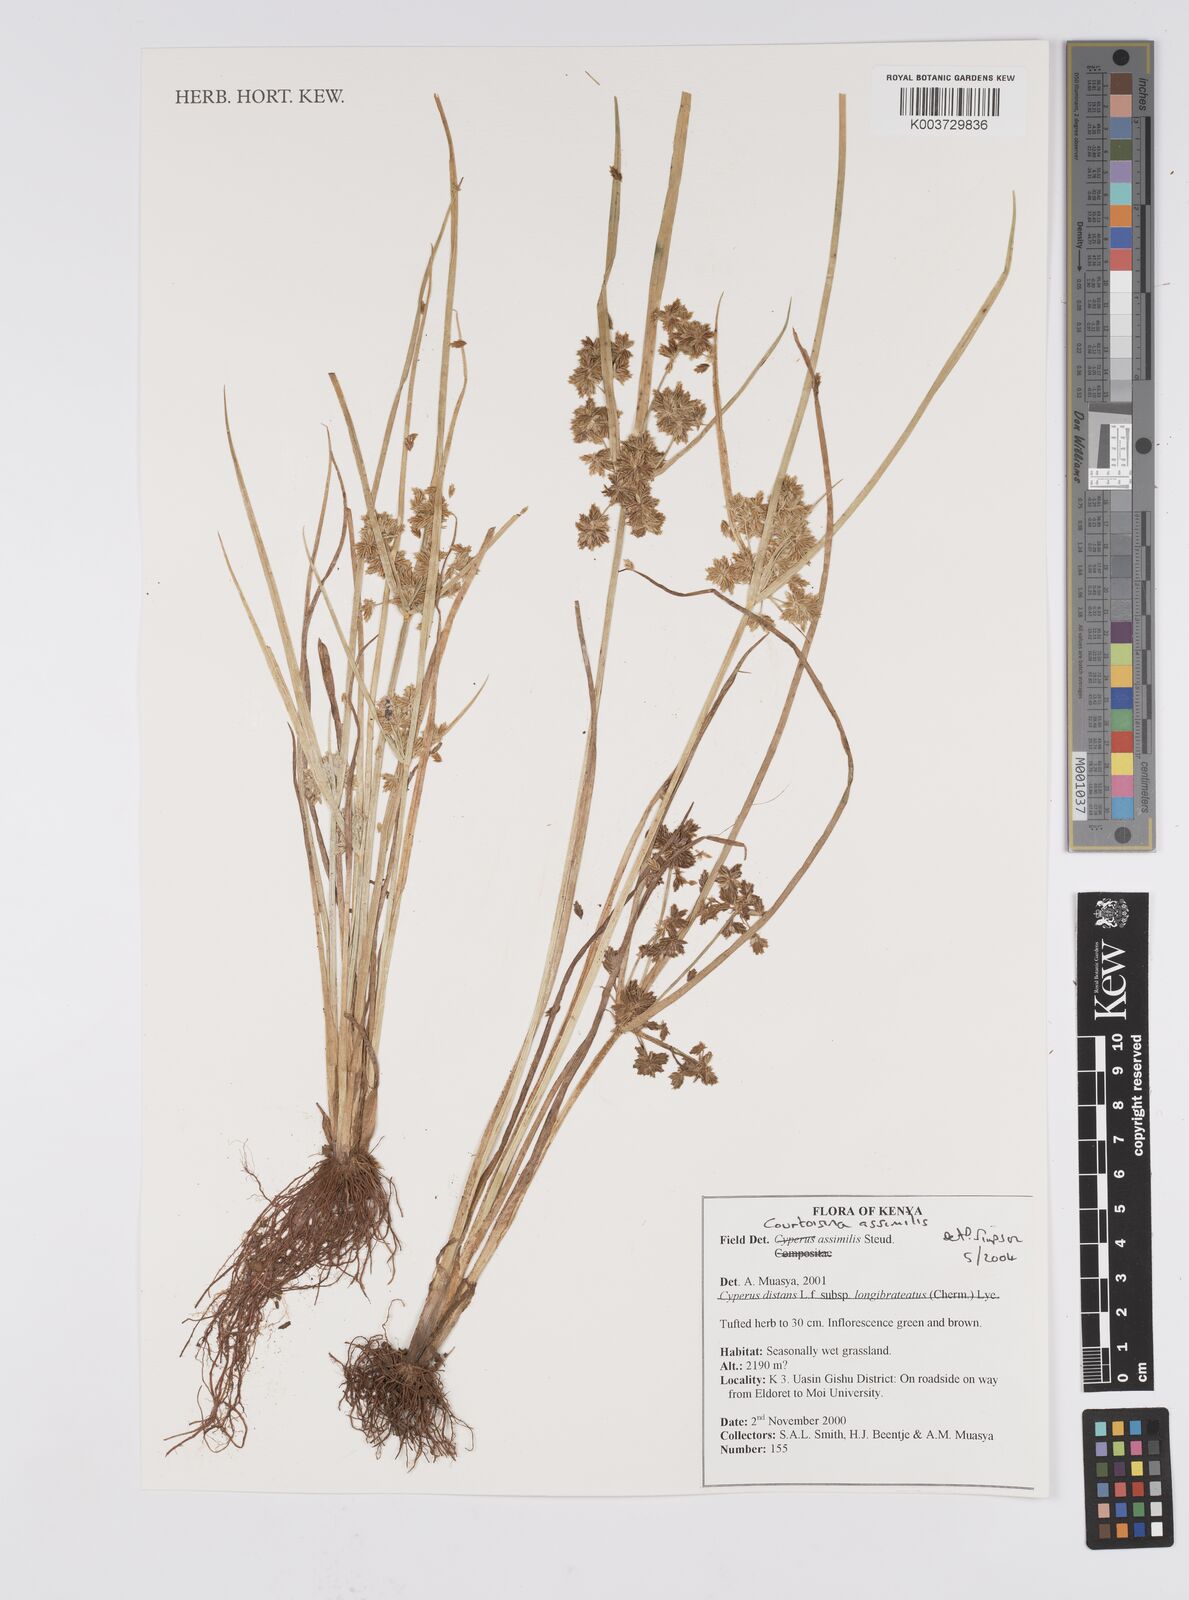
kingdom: Plantae
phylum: Tracheophyta
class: Liliopsida
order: Poales
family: Cyperaceae
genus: Cyperus
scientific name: Cyperus assimilis
